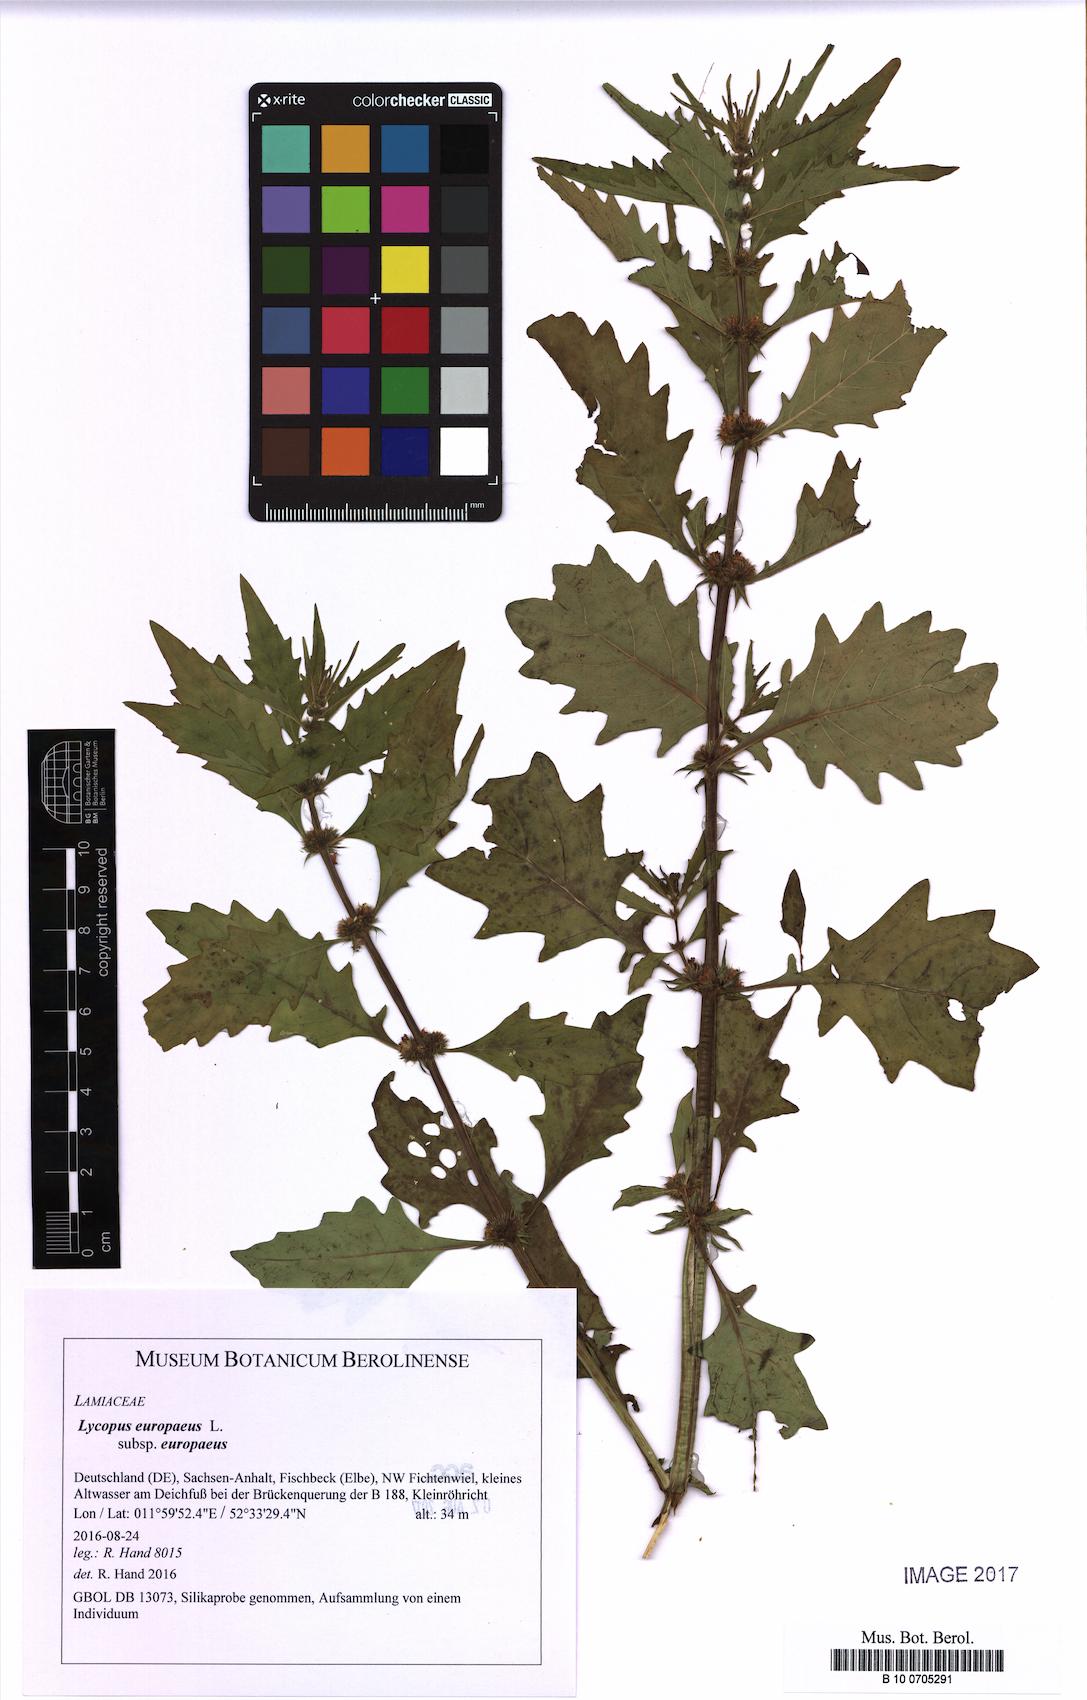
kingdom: Plantae
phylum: Tracheophyta
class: Magnoliopsida
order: Lamiales
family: Lamiaceae
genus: Lycopus
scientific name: Lycopus europaeus
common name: European bugleweed
